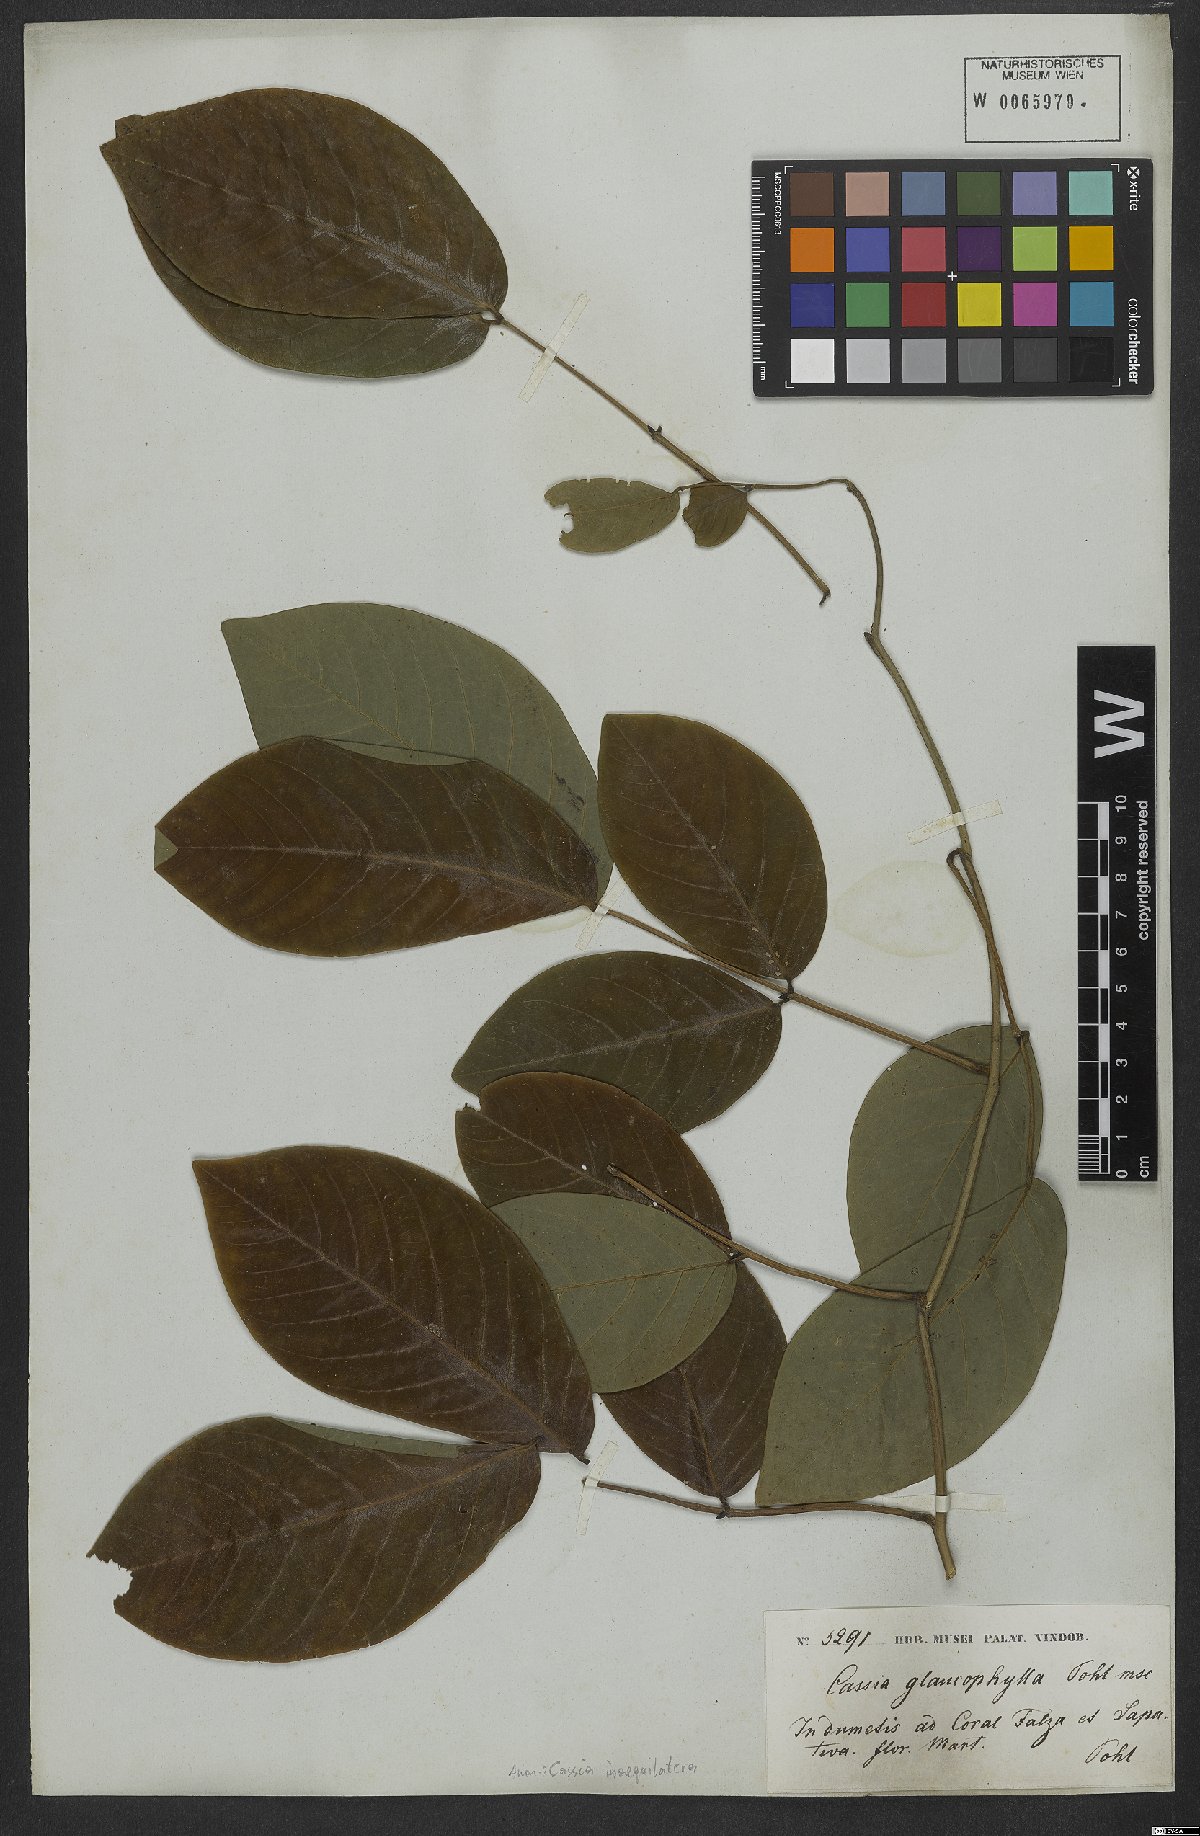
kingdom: Plantae
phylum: Tracheophyta
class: Magnoliopsida
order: Fabales
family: Fabaceae
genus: Senna
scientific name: Senna bacillaris
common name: West indian showertree
